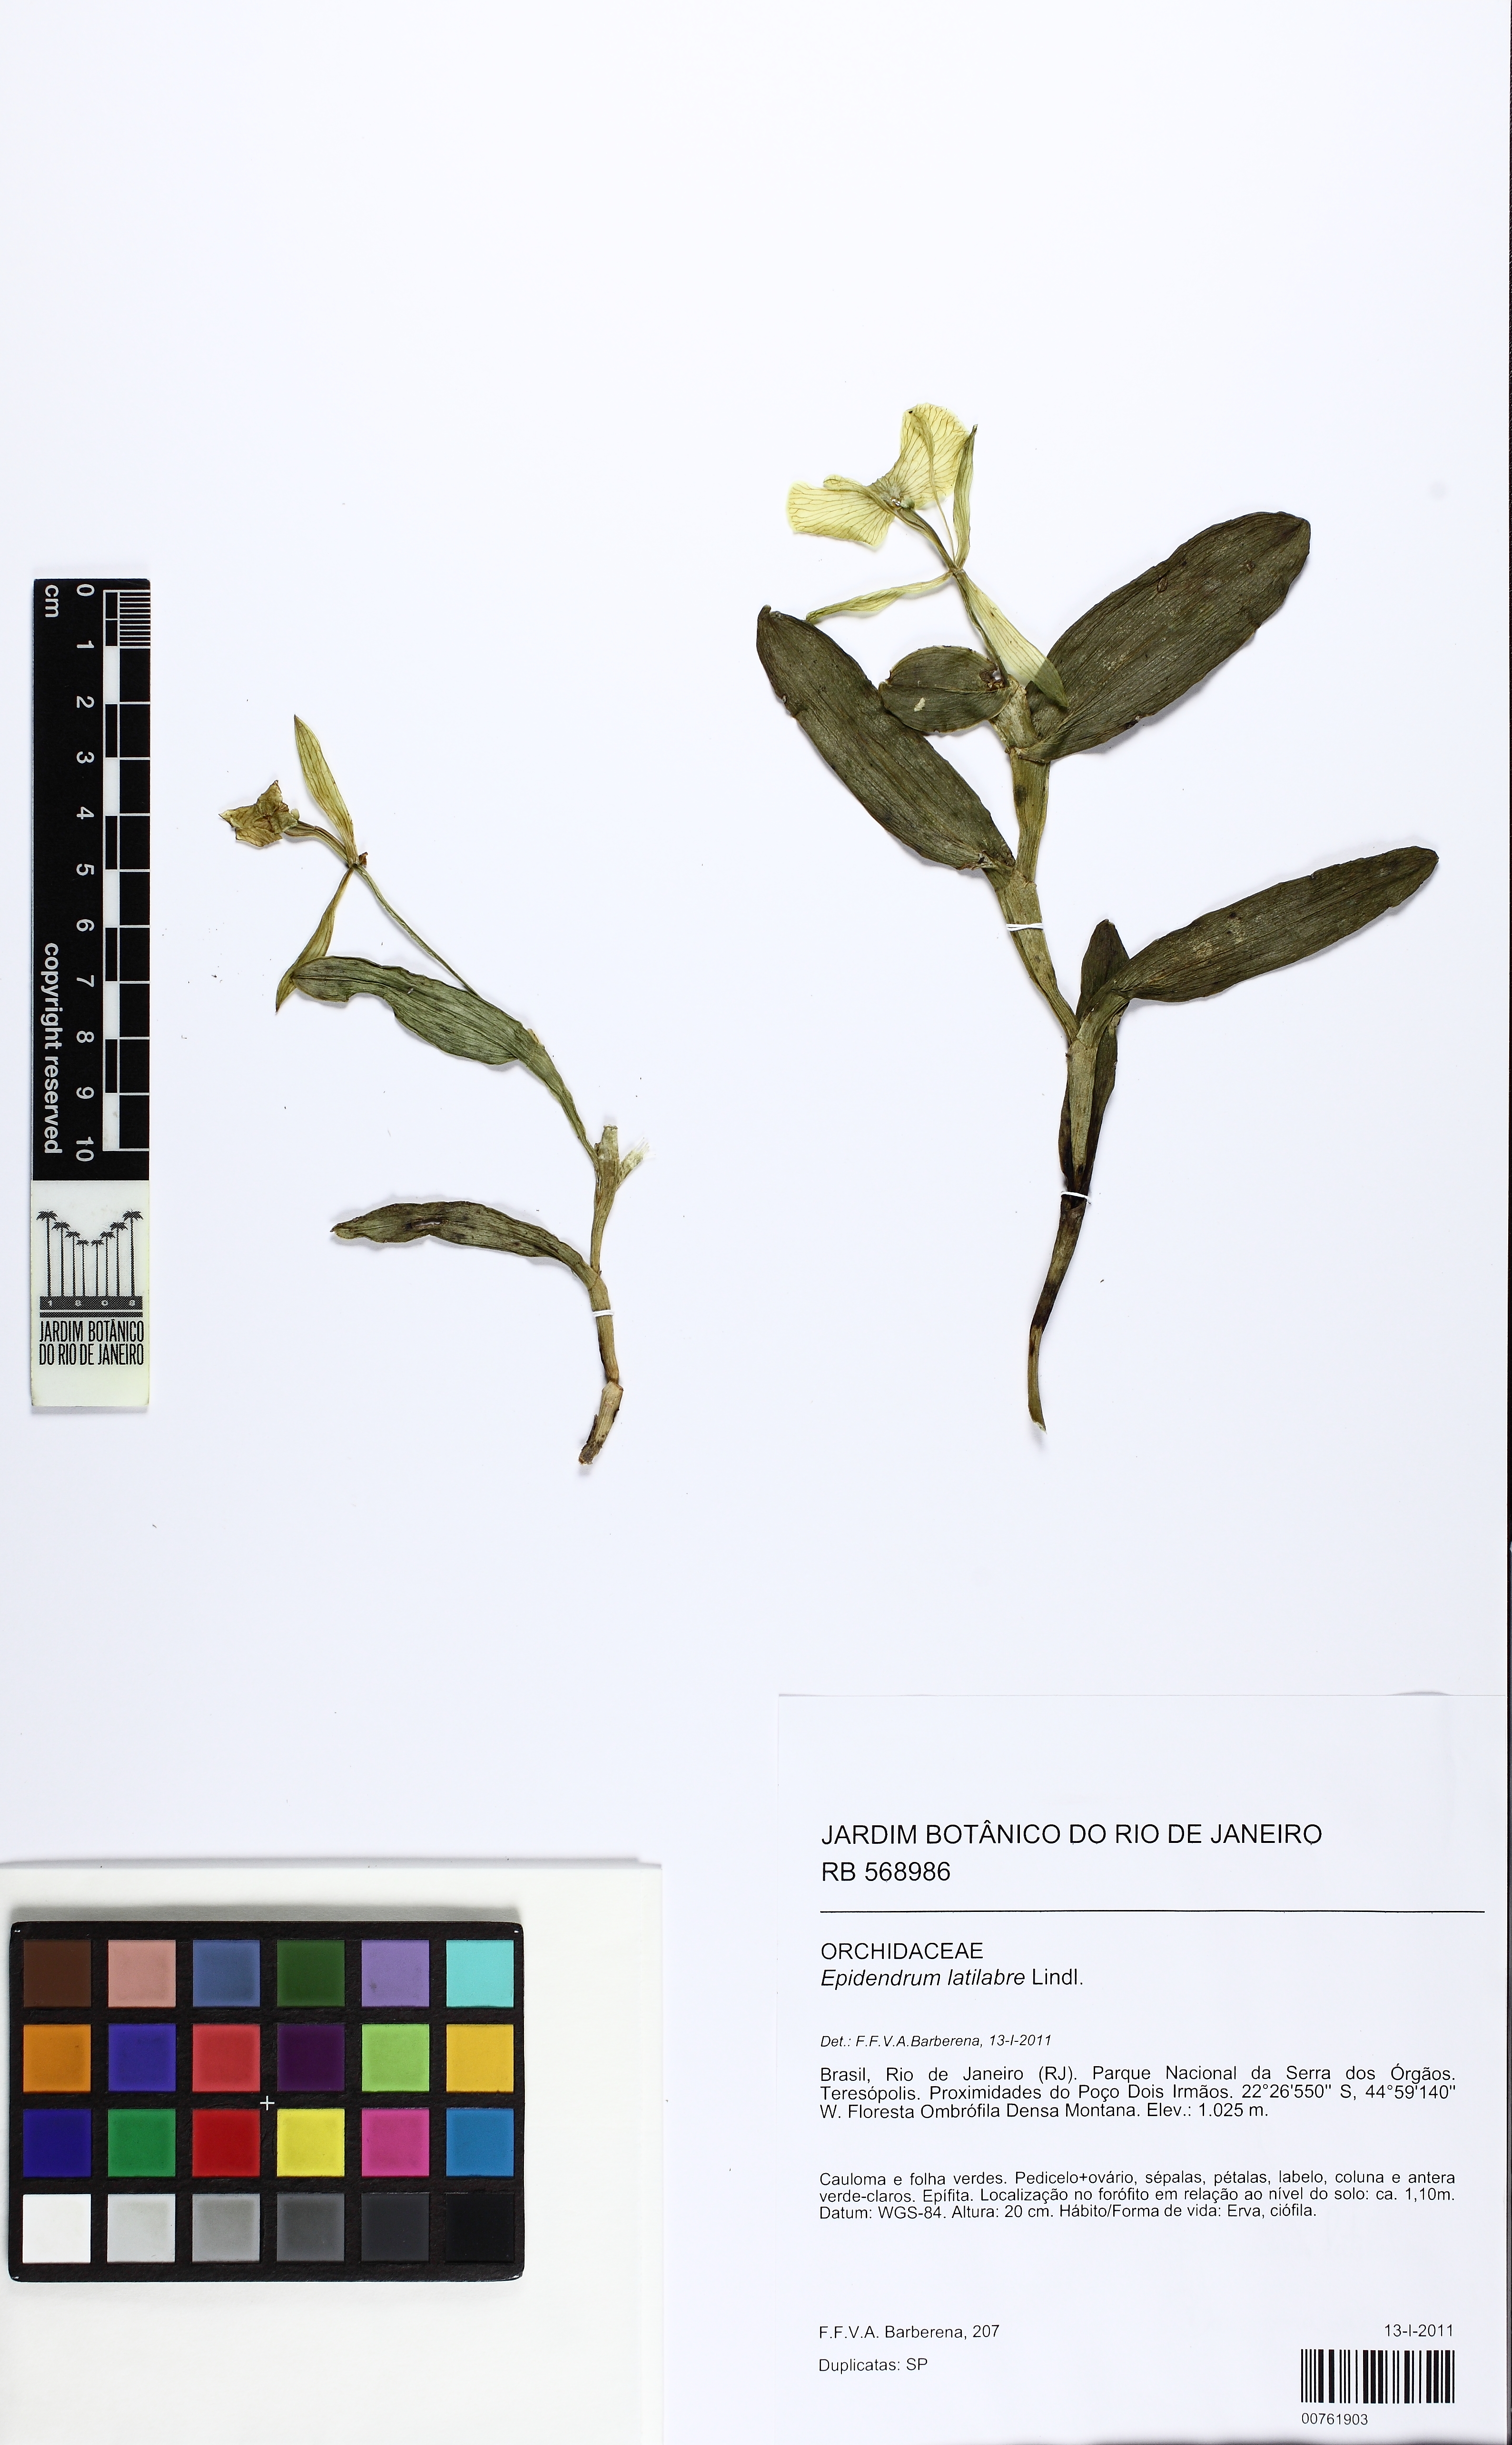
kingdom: Plantae
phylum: Tracheophyta
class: Liliopsida
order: Asparagales
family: Orchidaceae
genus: Epidendrum
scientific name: Epidendrum latilabre
